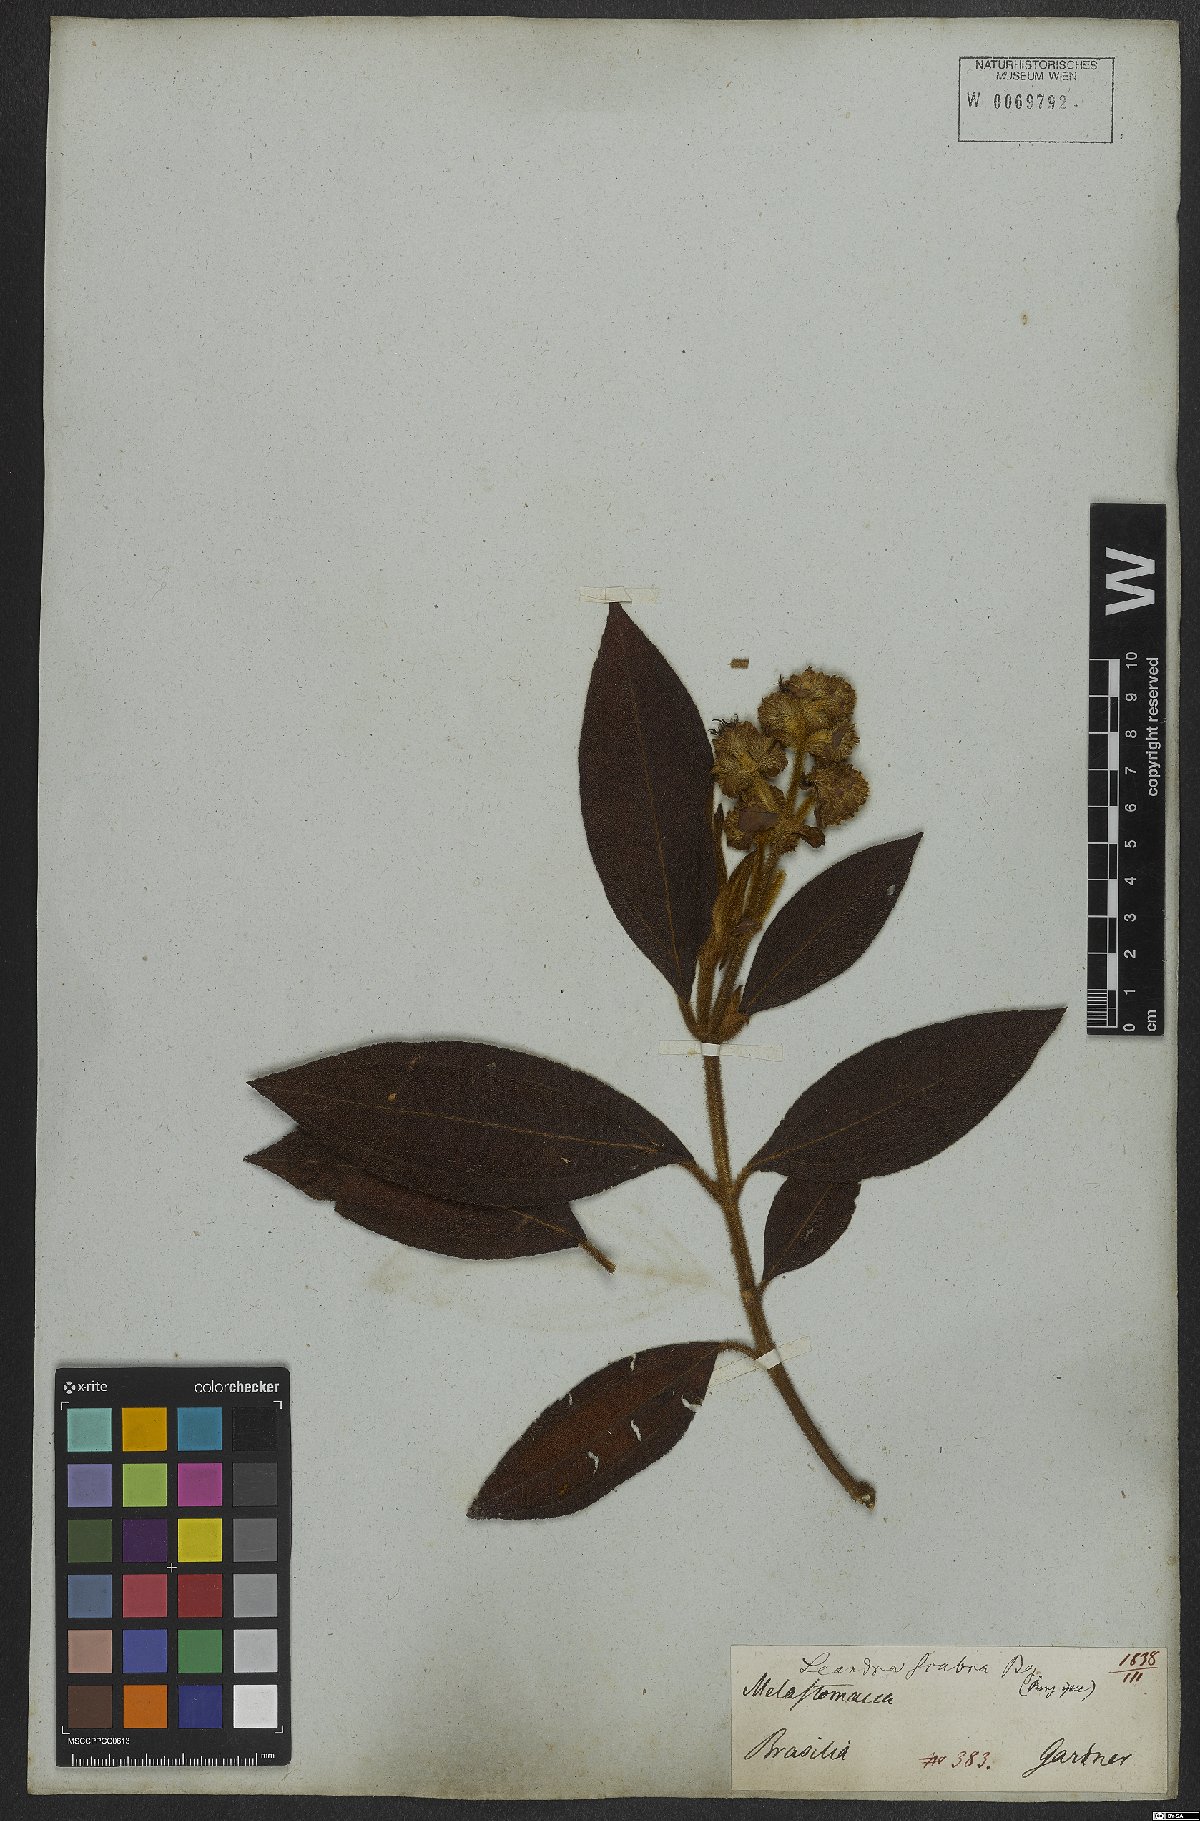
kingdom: Plantae
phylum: Tracheophyta
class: Magnoliopsida
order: Myrtales
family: Melastomataceae
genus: Miconia
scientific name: Miconia melastomoides
